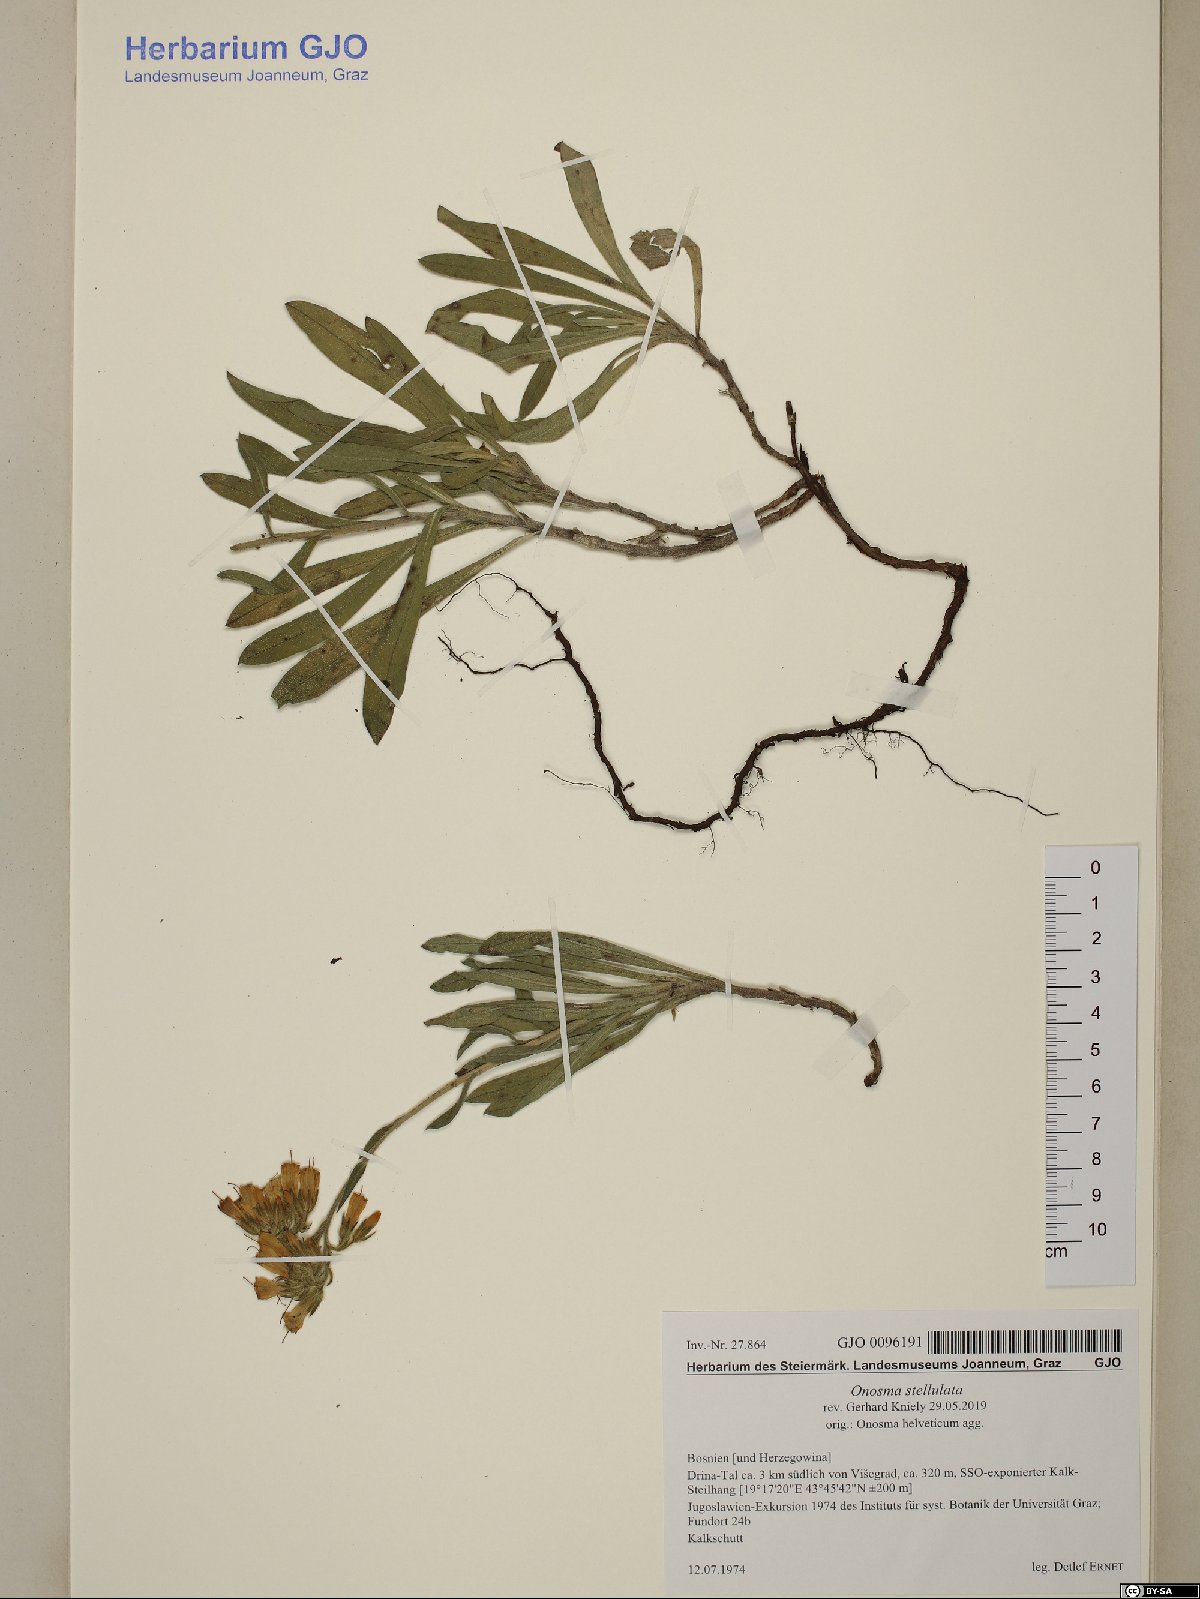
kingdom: Plantae
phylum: Tracheophyta
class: Magnoliopsida
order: Boraginales
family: Boraginaceae
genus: Onosma
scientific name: Onosma stellulata
